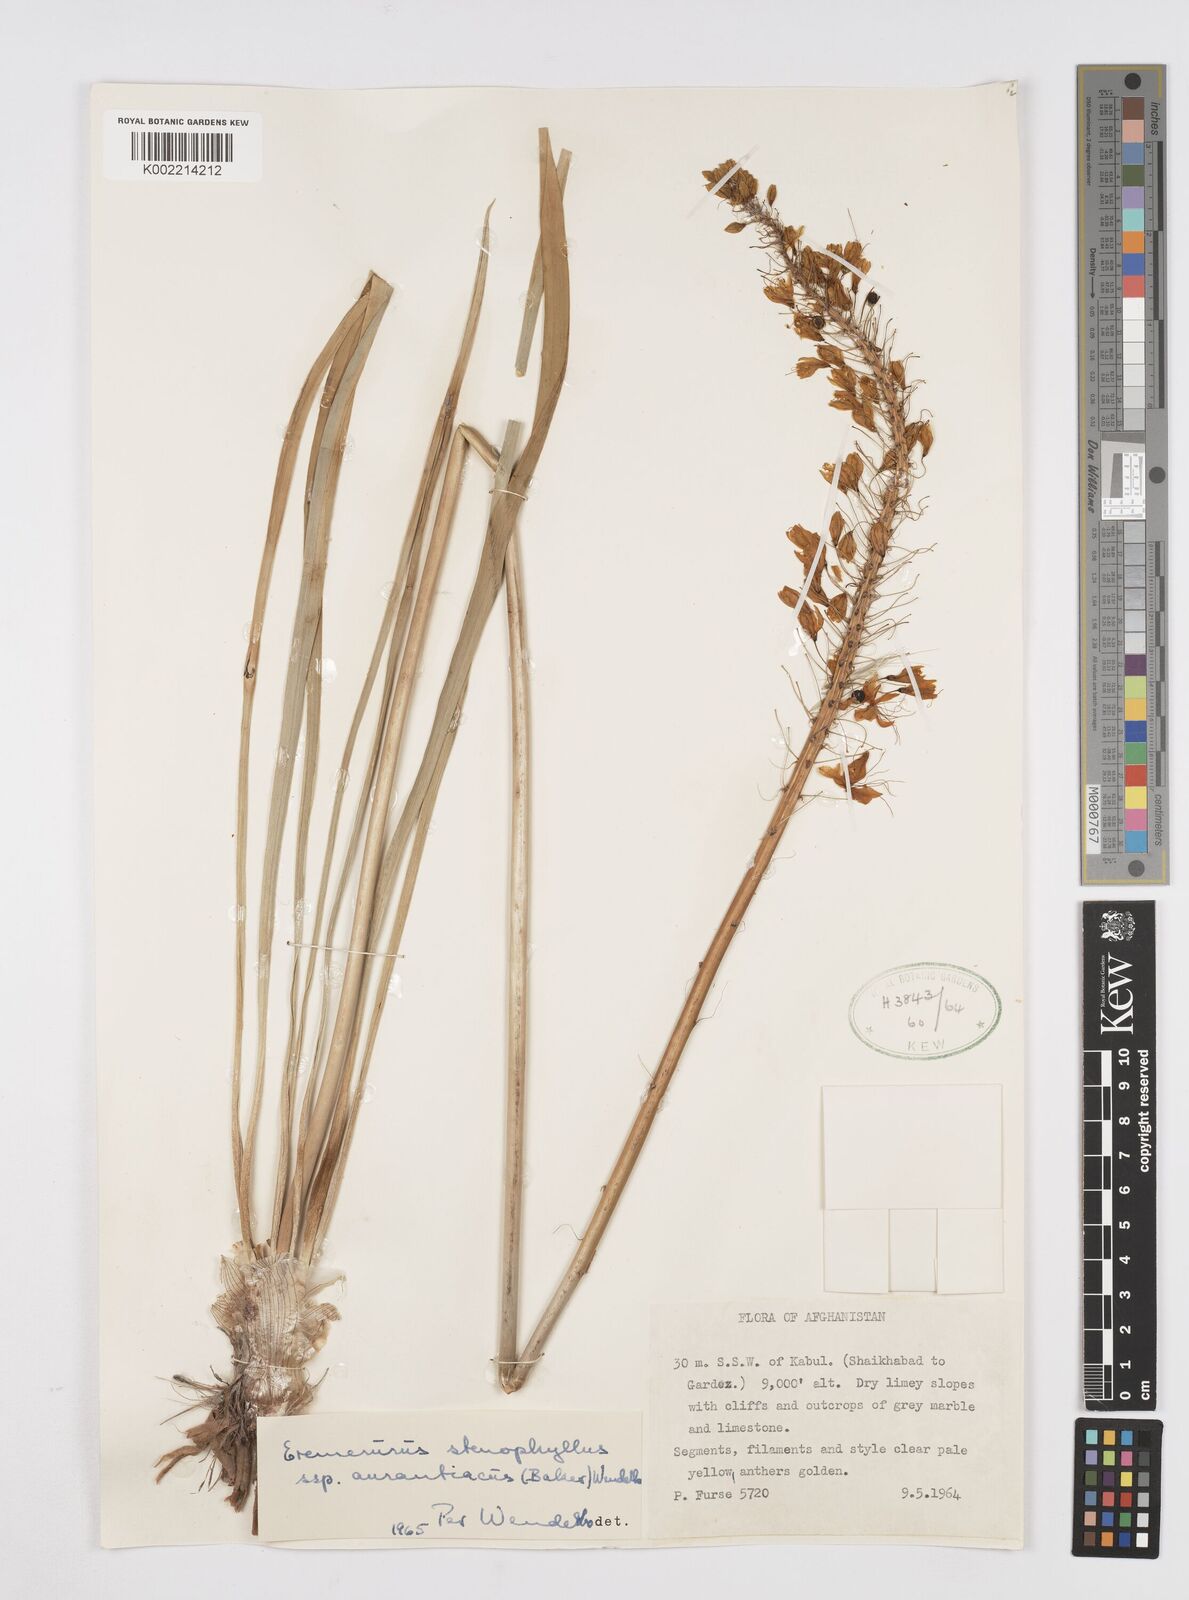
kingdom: Plantae
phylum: Tracheophyta
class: Liliopsida
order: Asparagales
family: Asphodelaceae
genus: Eremurus
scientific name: Eremurus stenophyllus
